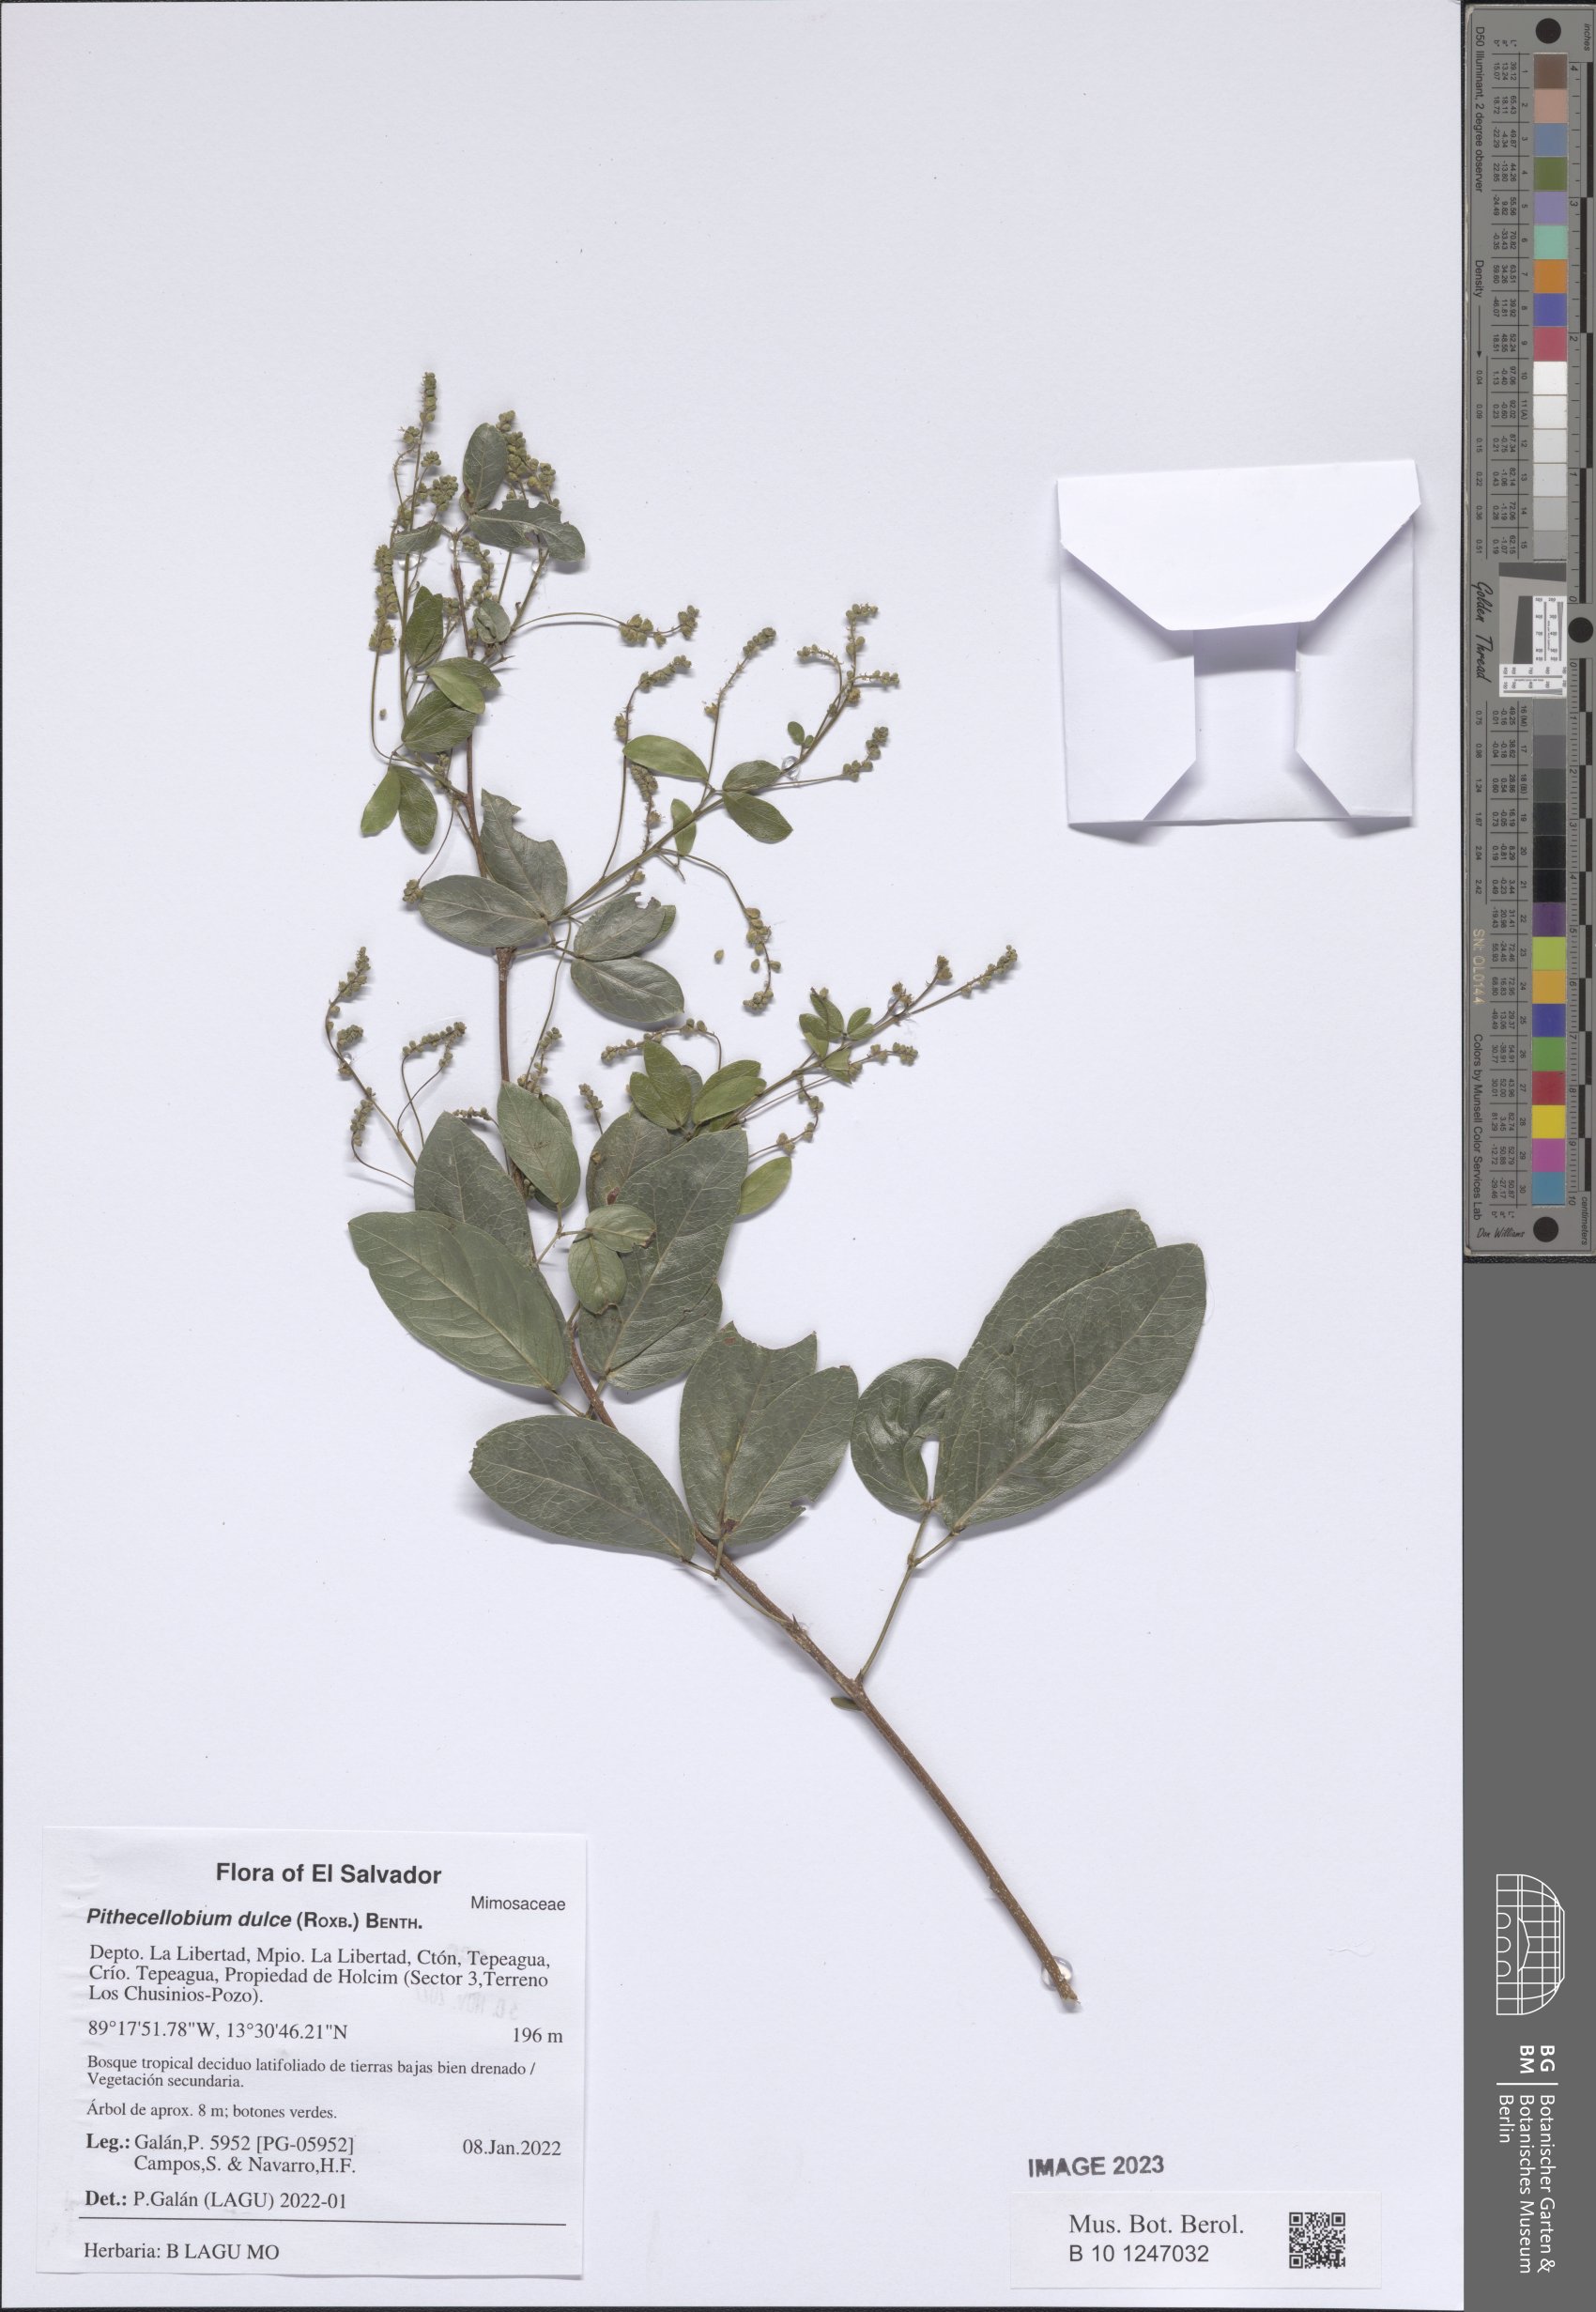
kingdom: Plantae
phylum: Tracheophyta
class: Magnoliopsida
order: Fabales
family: Fabaceae
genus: Pithecellobium
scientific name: Pithecellobium dulce
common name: Monkeypod
